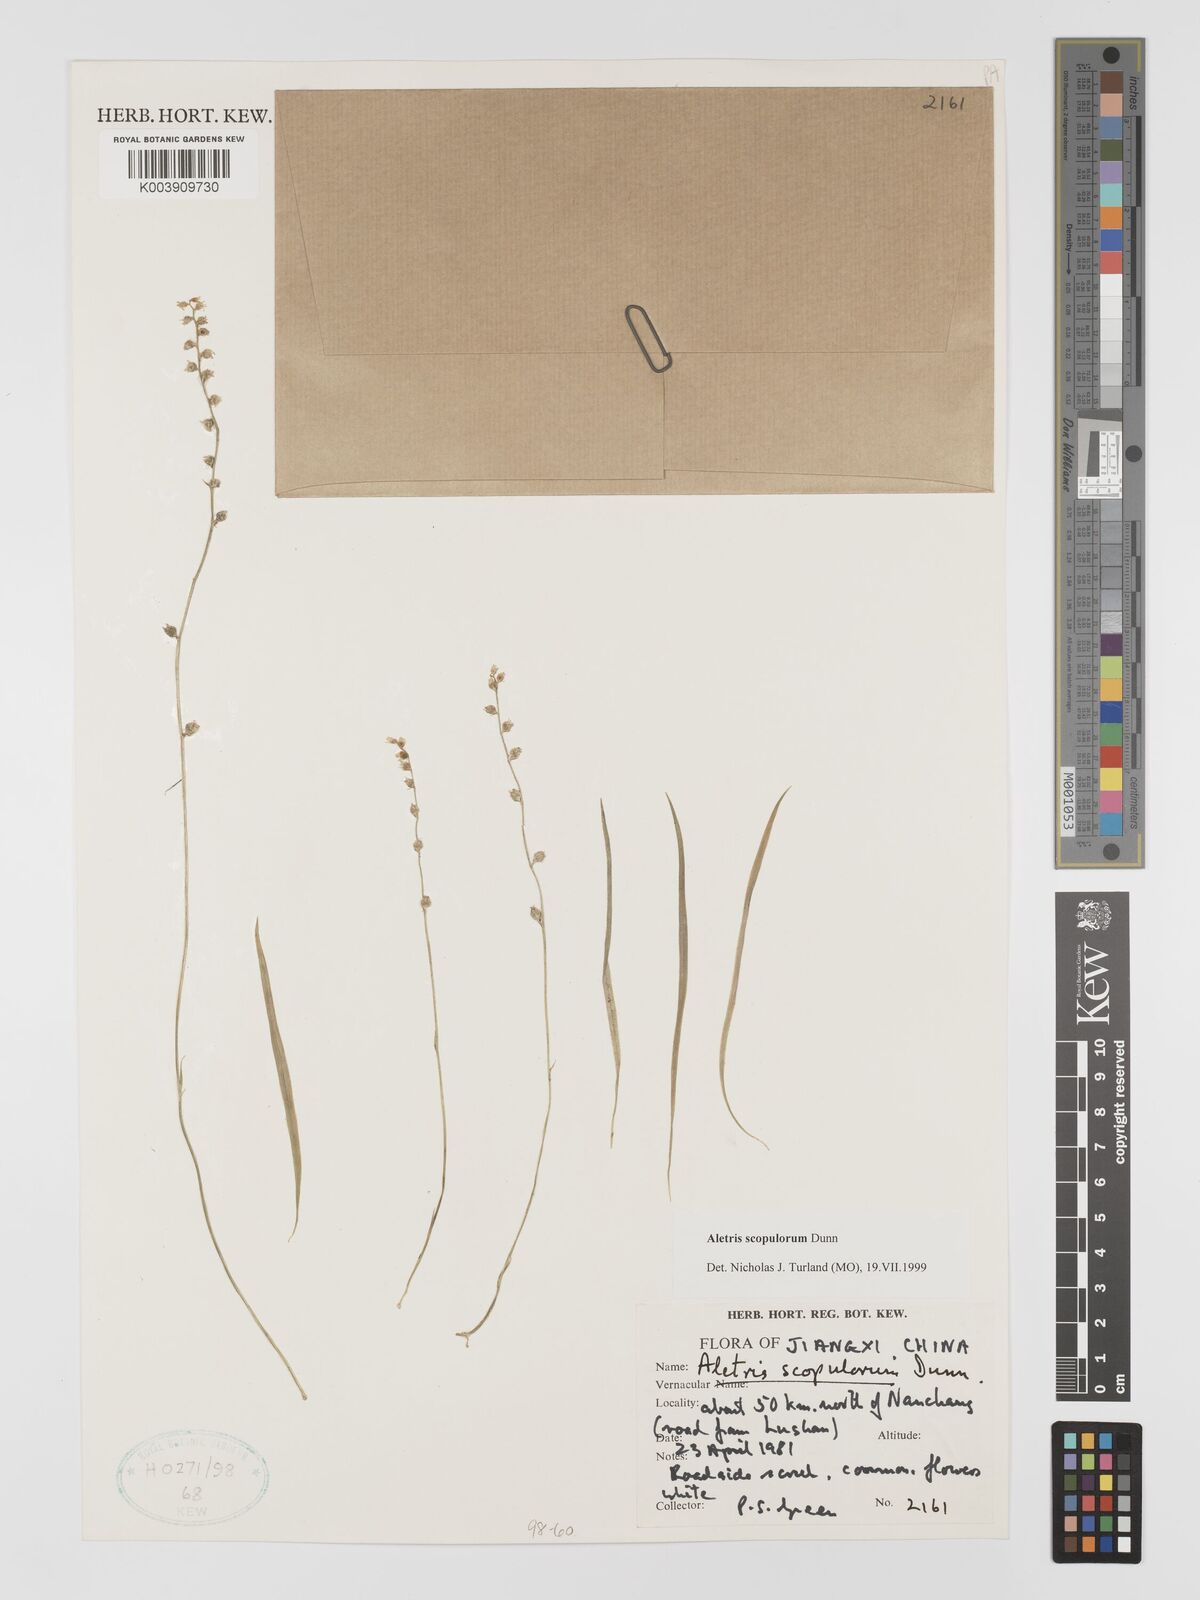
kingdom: Plantae
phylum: Tracheophyta
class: Liliopsida
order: Dioscoreales
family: Nartheciaceae
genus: Aletris
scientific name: Aletris scopulorum
